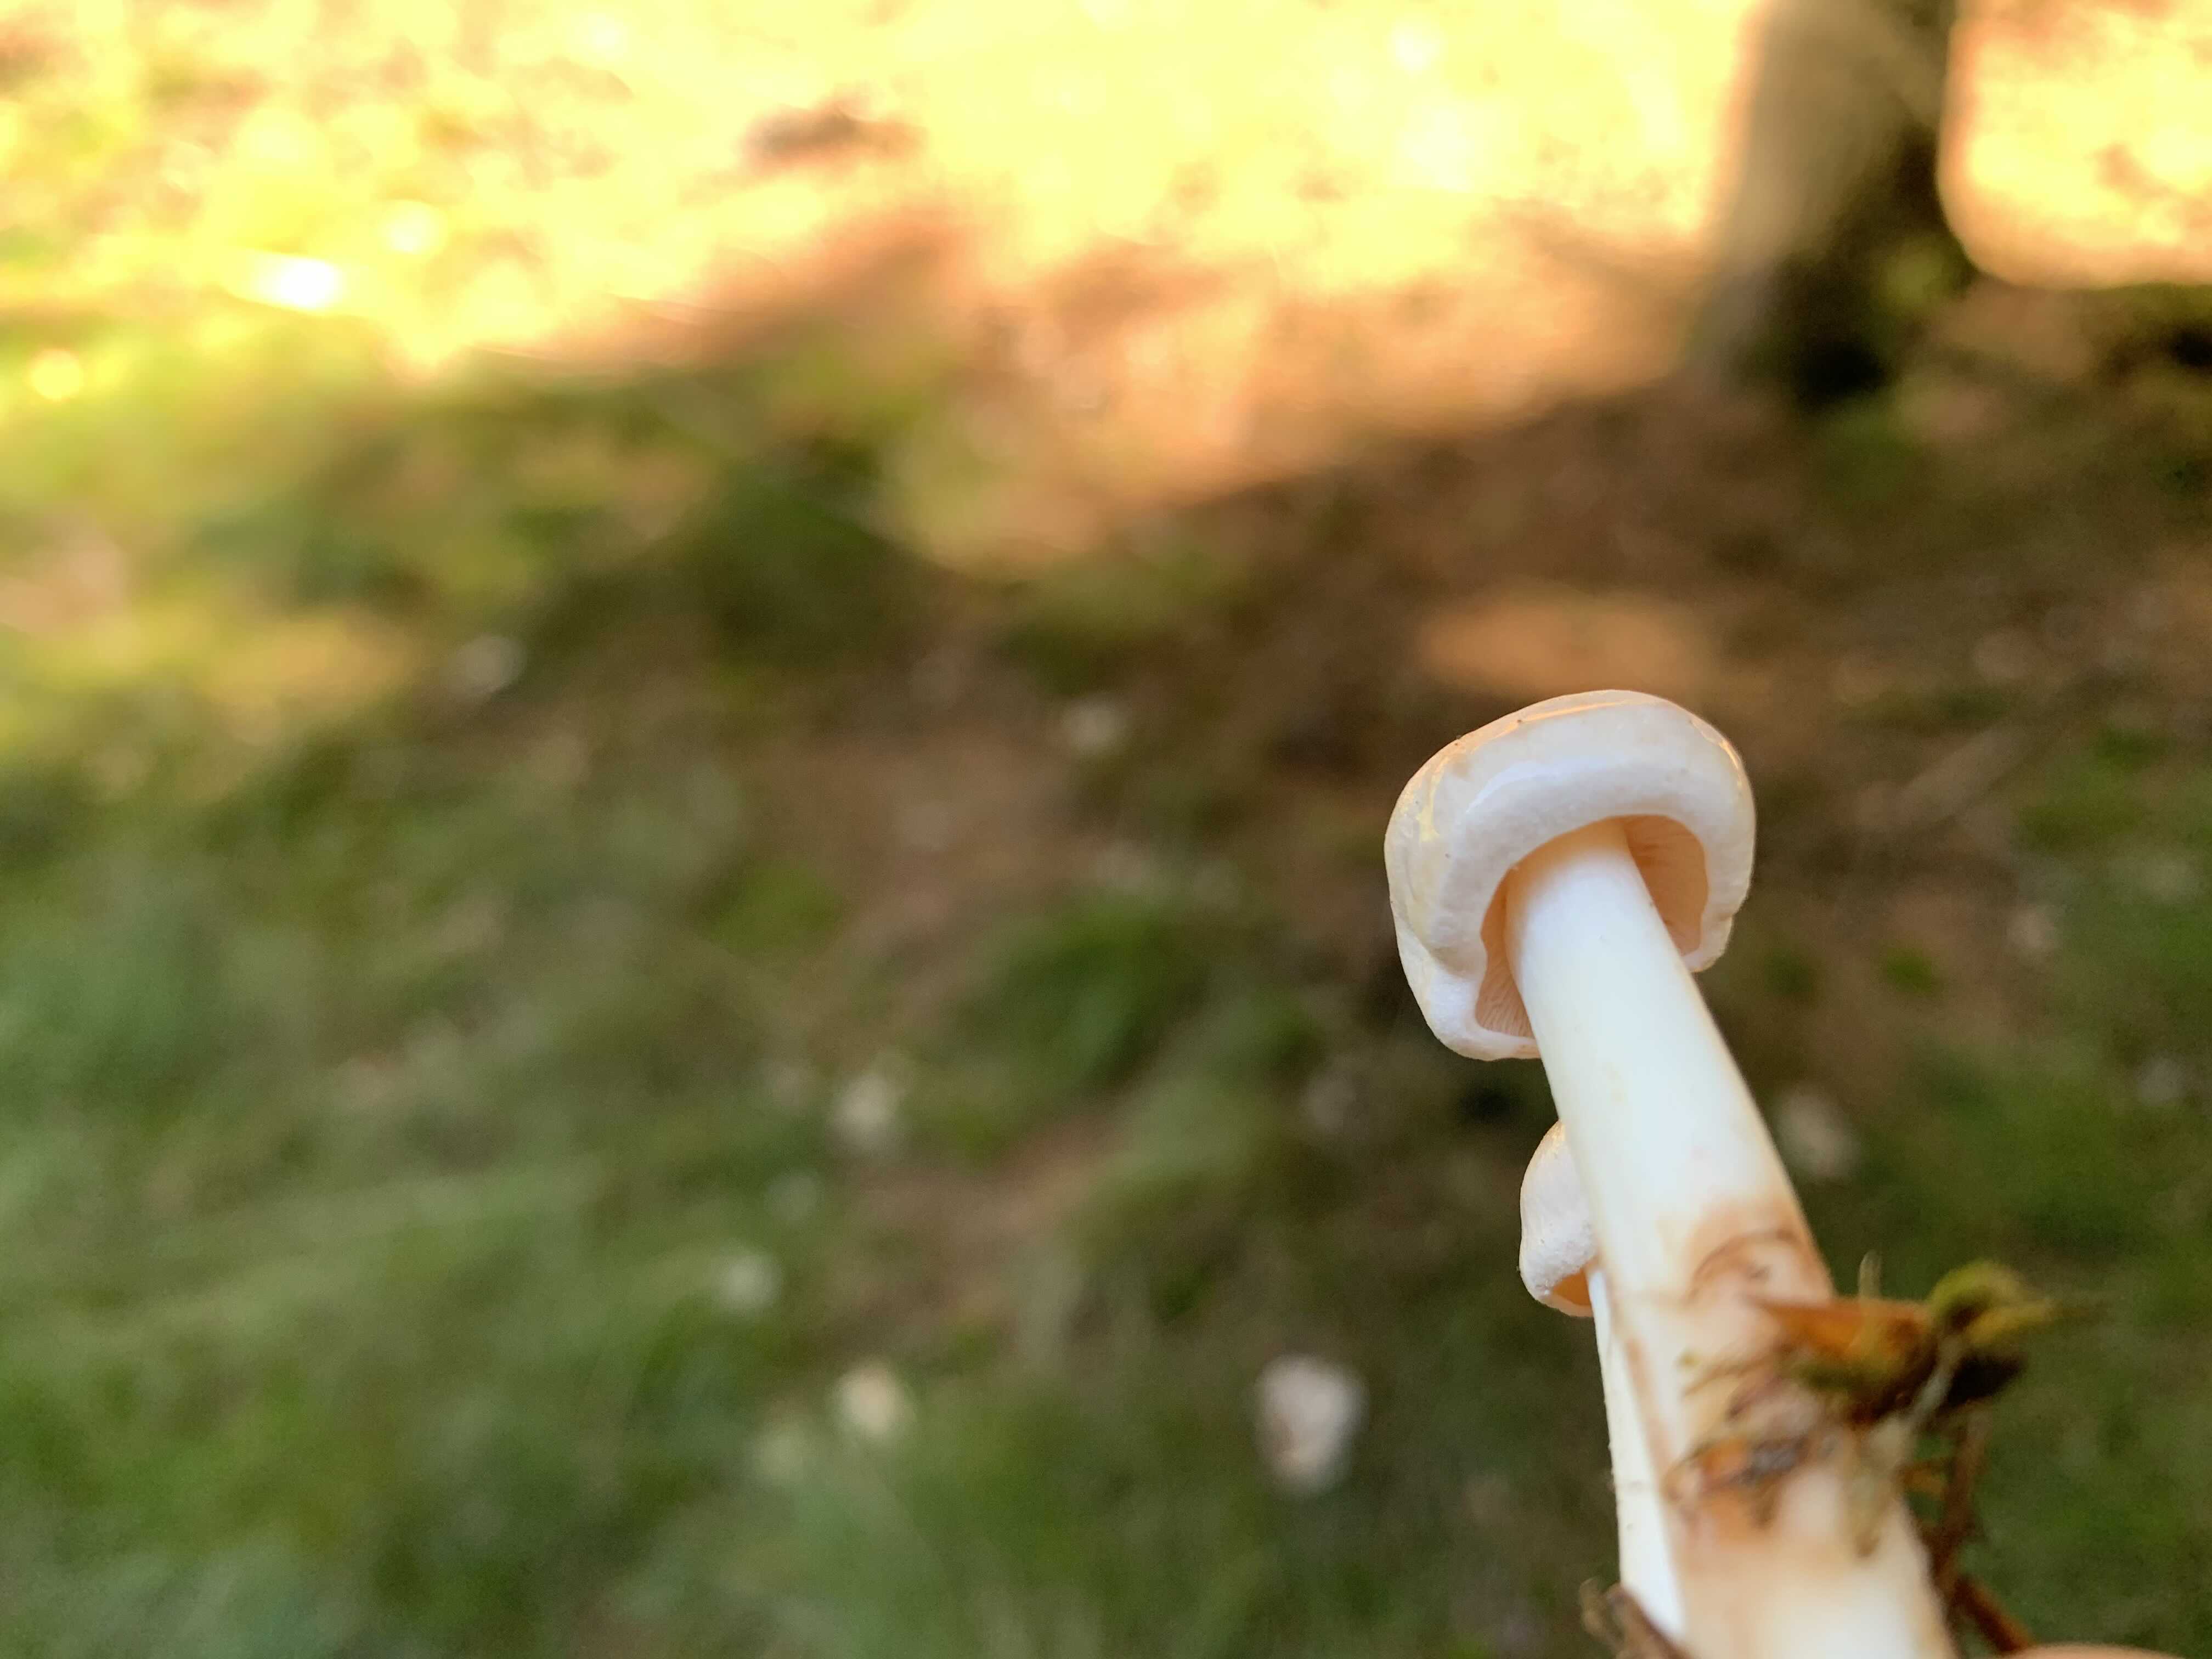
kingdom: Fungi
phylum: Basidiomycota
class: Agaricomycetes
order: Agaricales
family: Omphalotaceae
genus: Rhodocollybia
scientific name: Rhodocollybia maculata
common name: plettet fladhat
